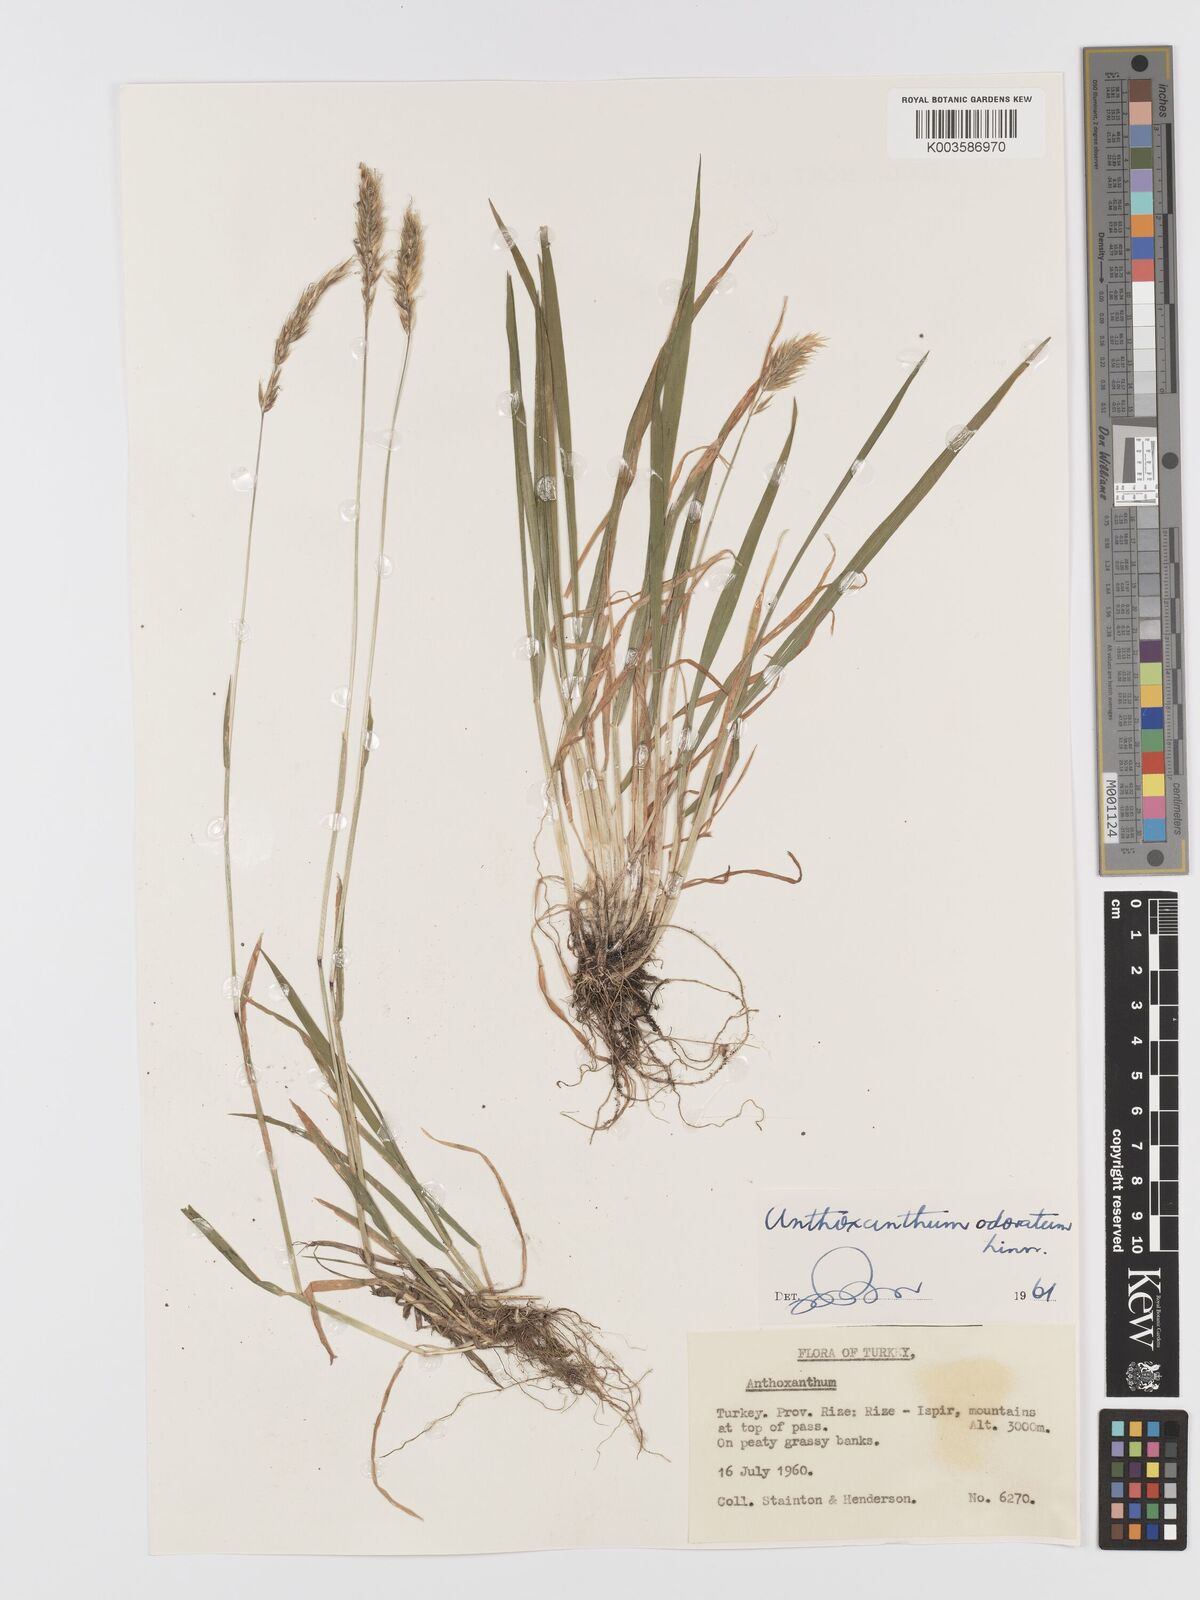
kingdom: Plantae
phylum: Tracheophyta
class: Liliopsida
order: Poales
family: Poaceae
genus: Anthoxanthum
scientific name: Anthoxanthum odoratum
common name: Sweet vernalgrass
